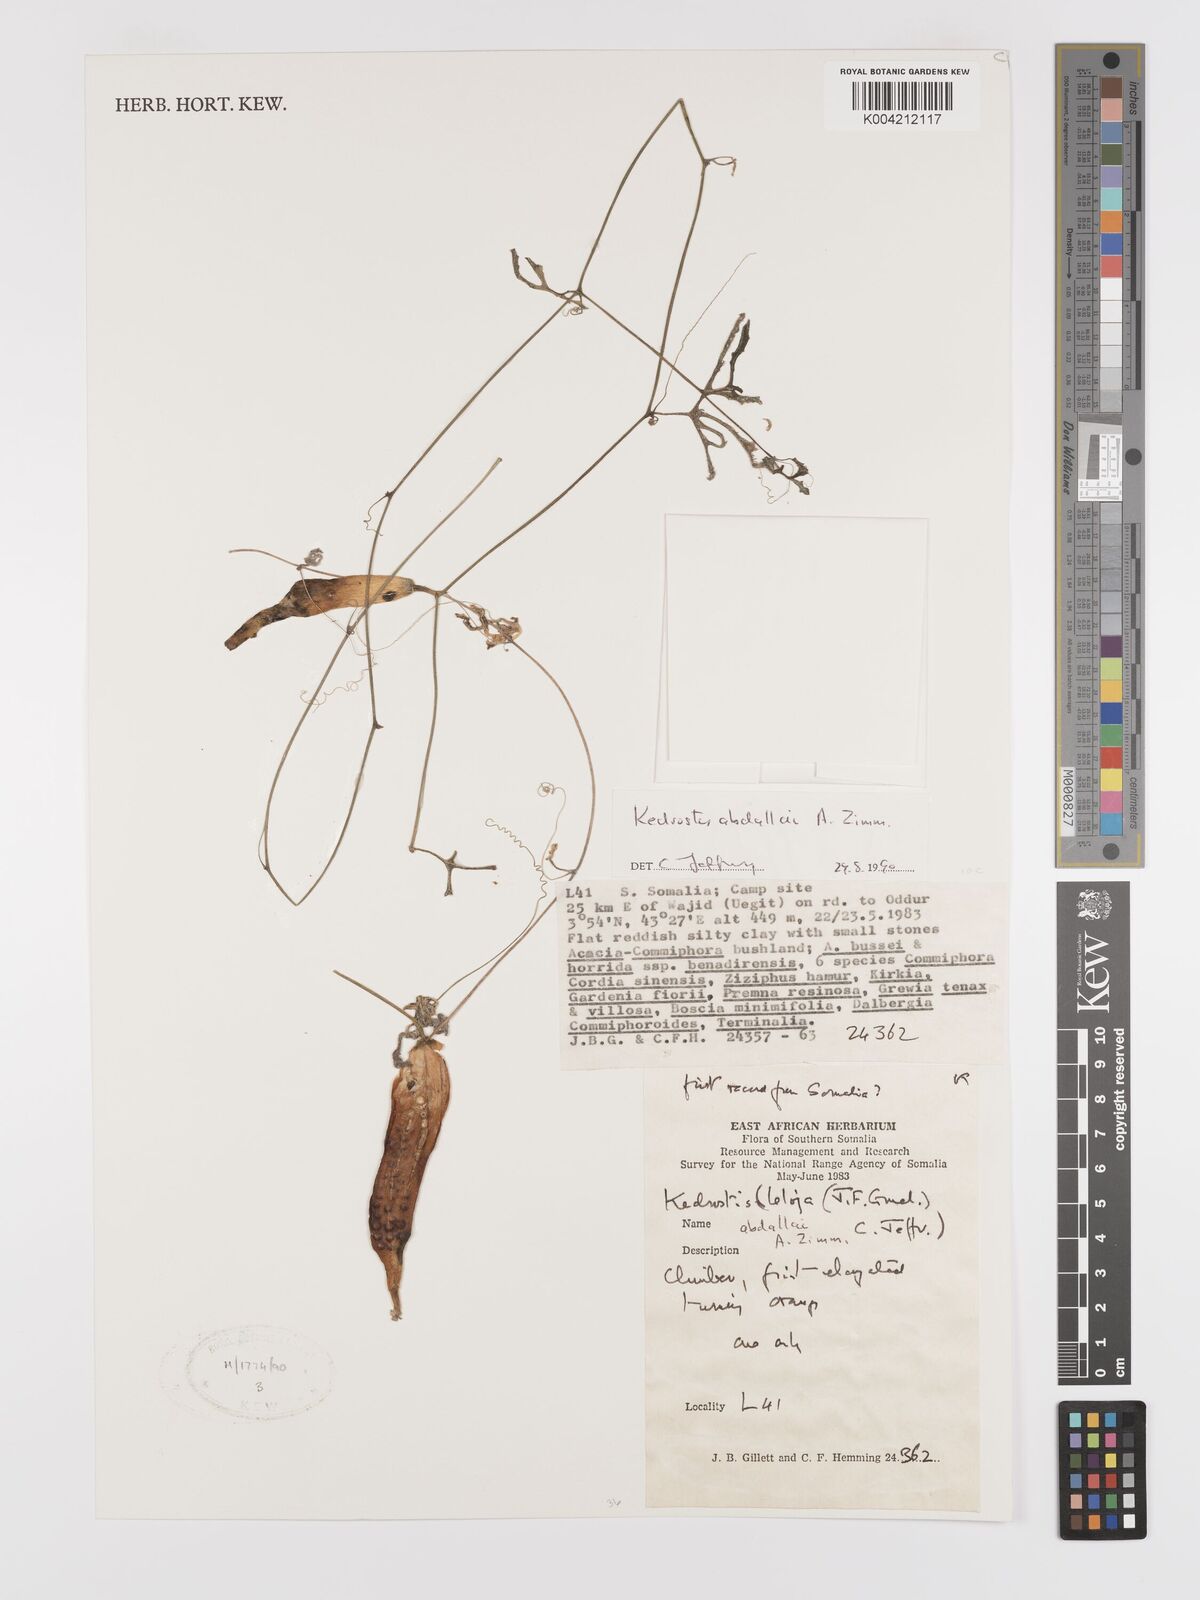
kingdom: Plantae
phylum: Tracheophyta
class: Magnoliopsida
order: Cucurbitales
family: Cucurbitaceae
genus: Kedrostis
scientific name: Kedrostis abdallae
